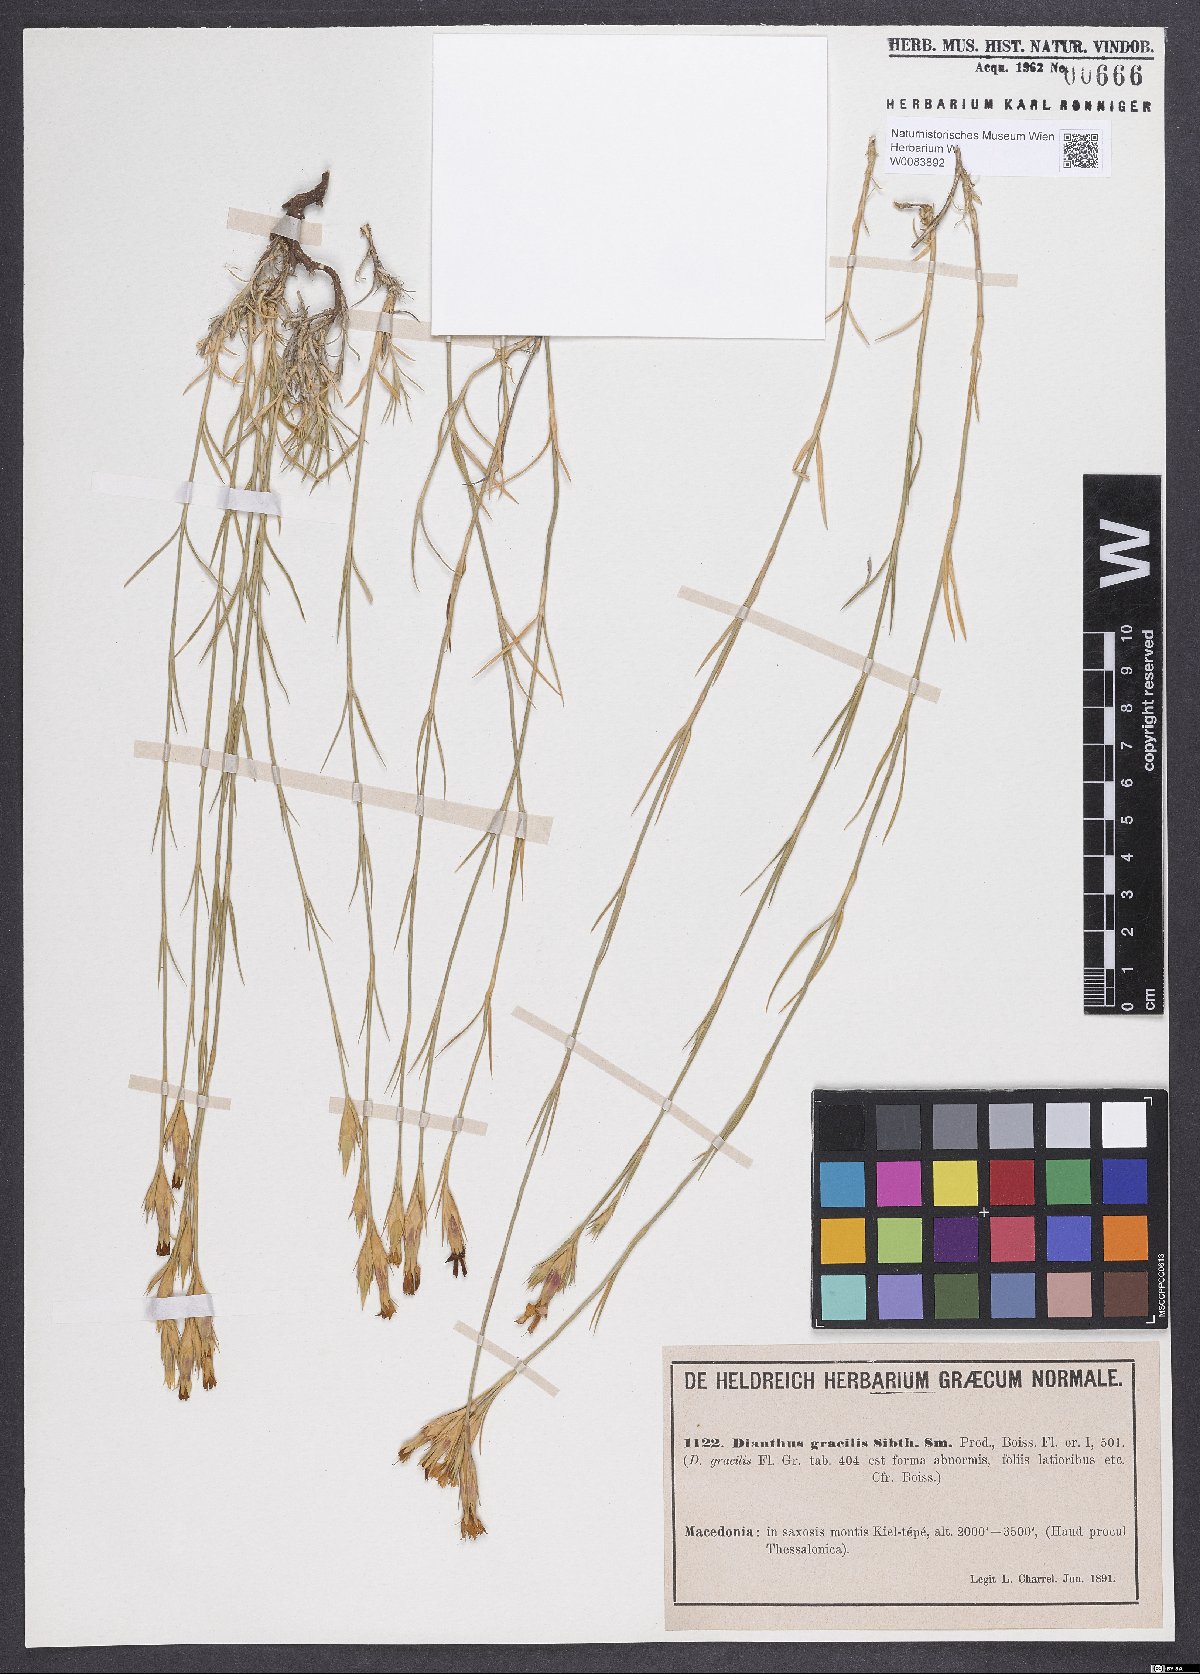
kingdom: Plantae
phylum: Tracheophyta
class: Magnoliopsida
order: Caryophyllales
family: Caryophyllaceae
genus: Dianthus
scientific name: Dianthus gracilis
